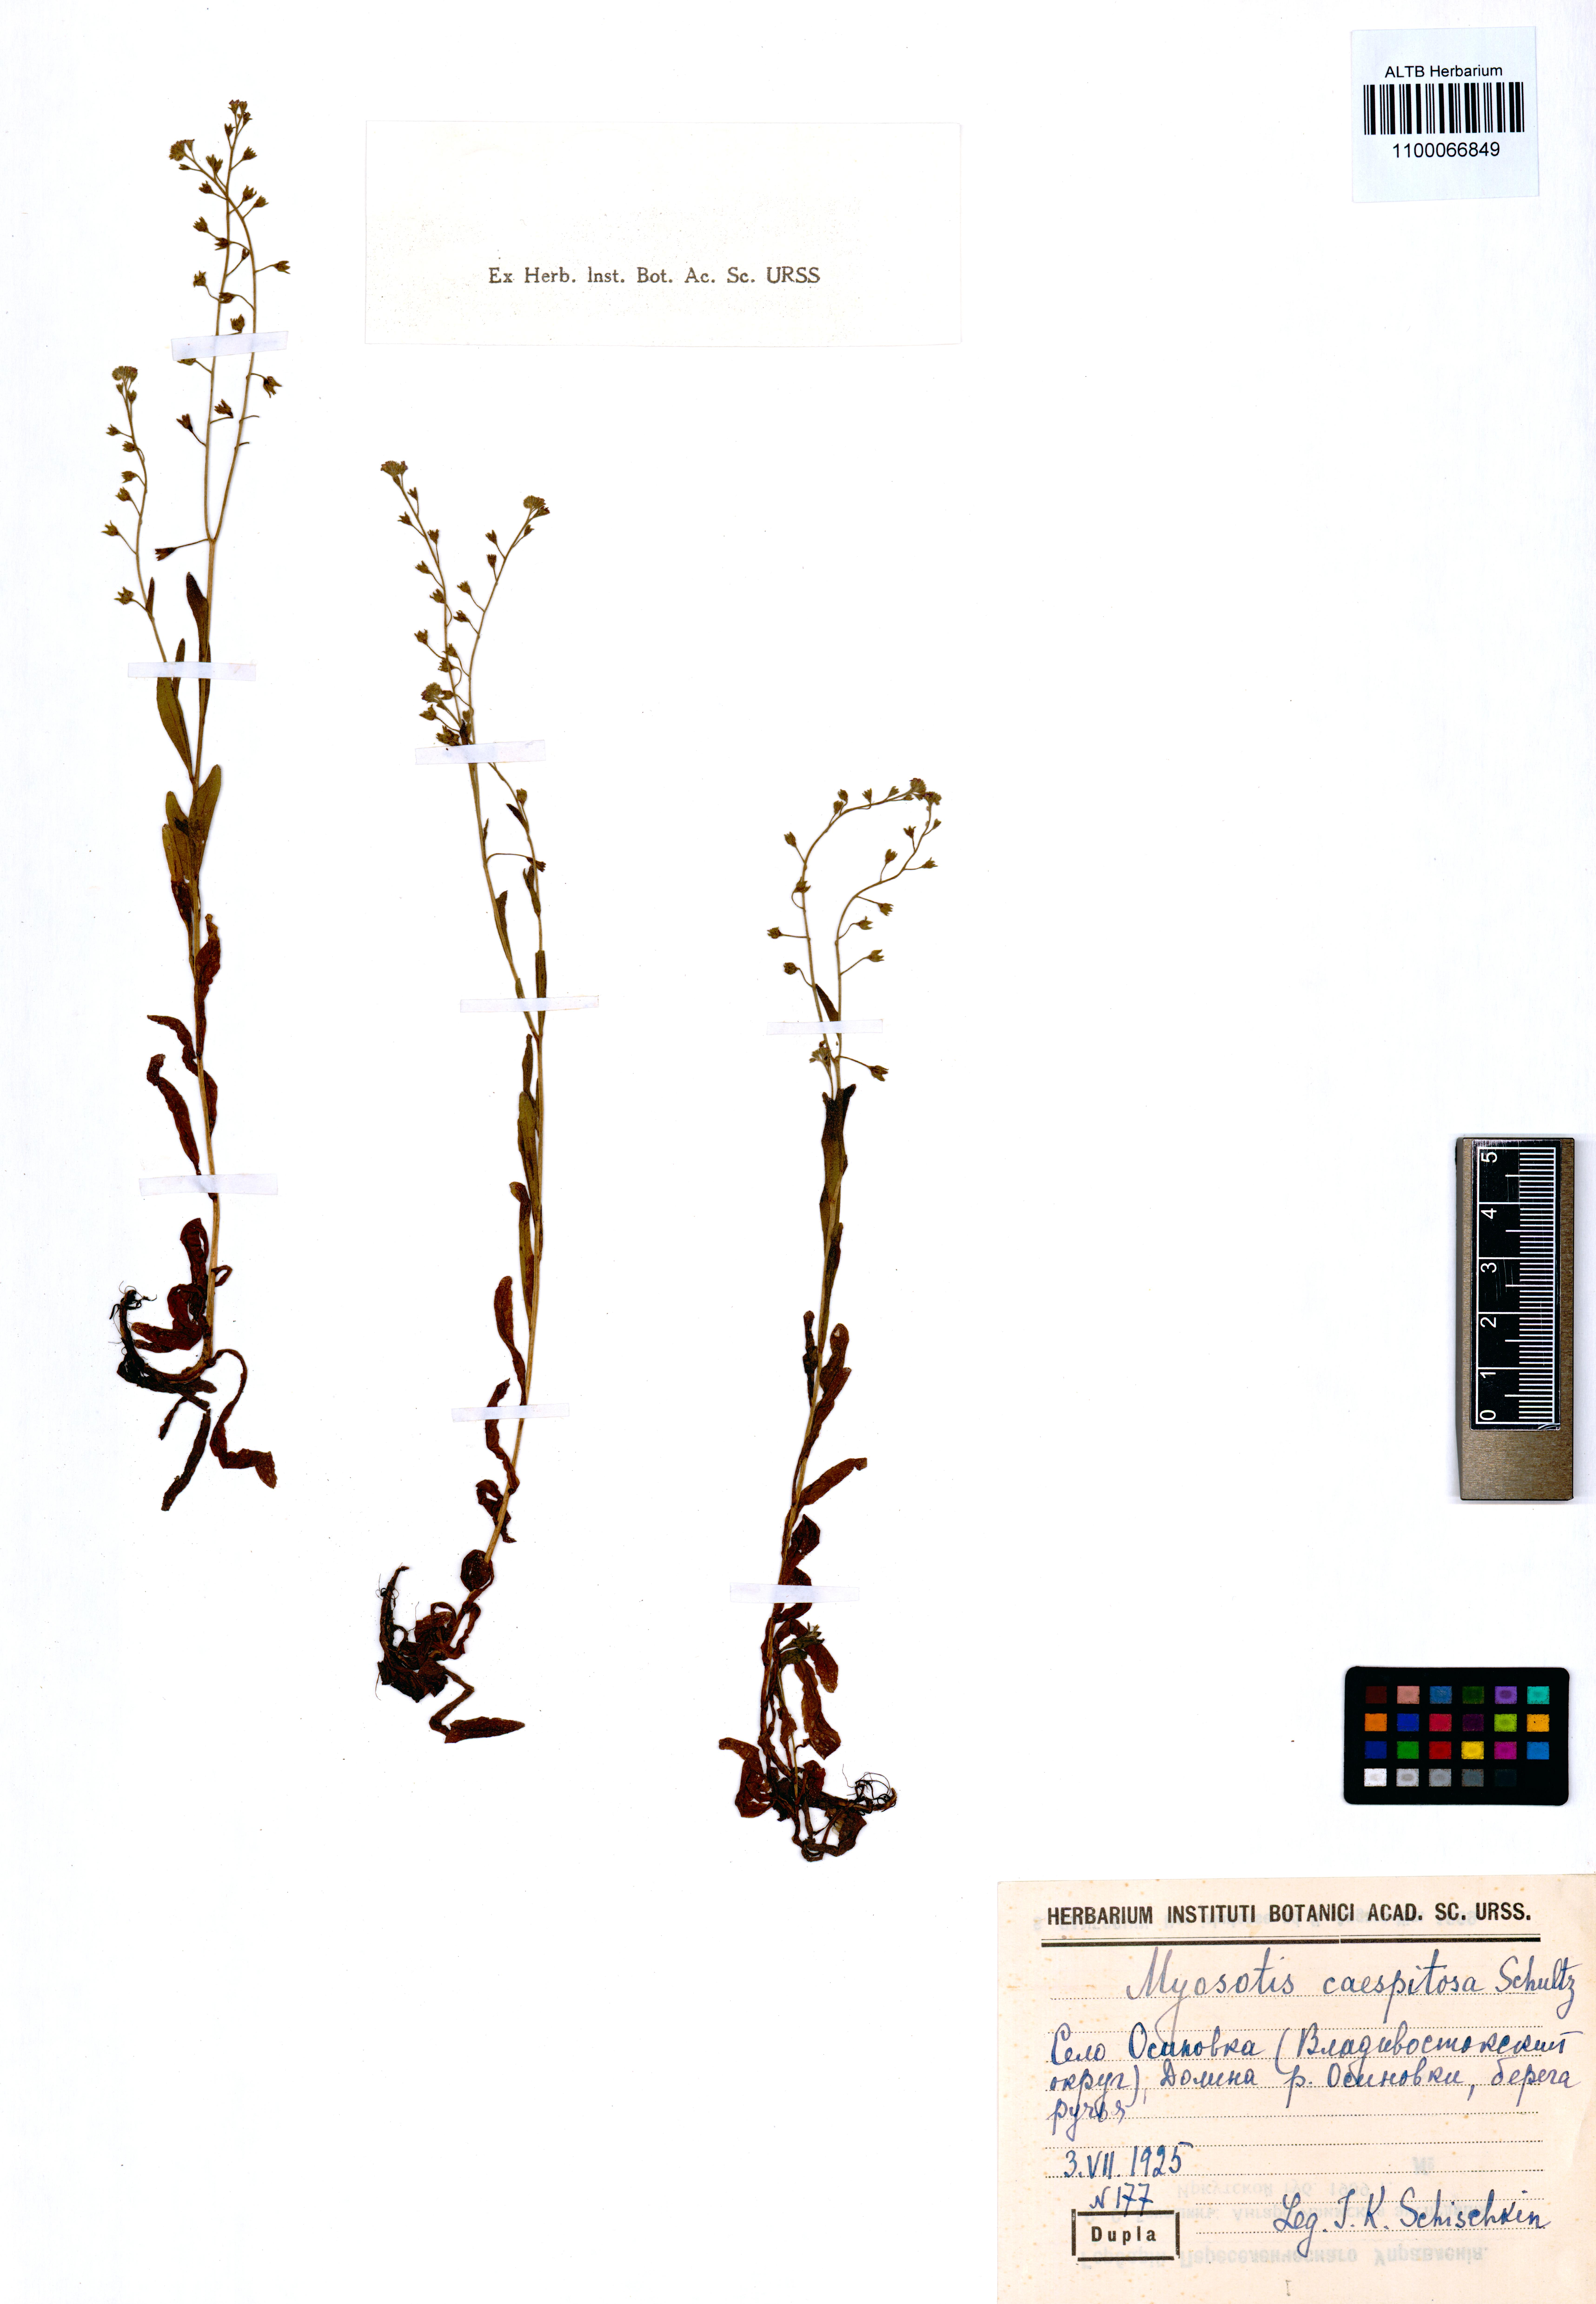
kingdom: Plantae
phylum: Tracheophyta
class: Magnoliopsida
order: Boraginales
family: Boraginaceae
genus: Myosotis
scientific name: Myosotis laxa
